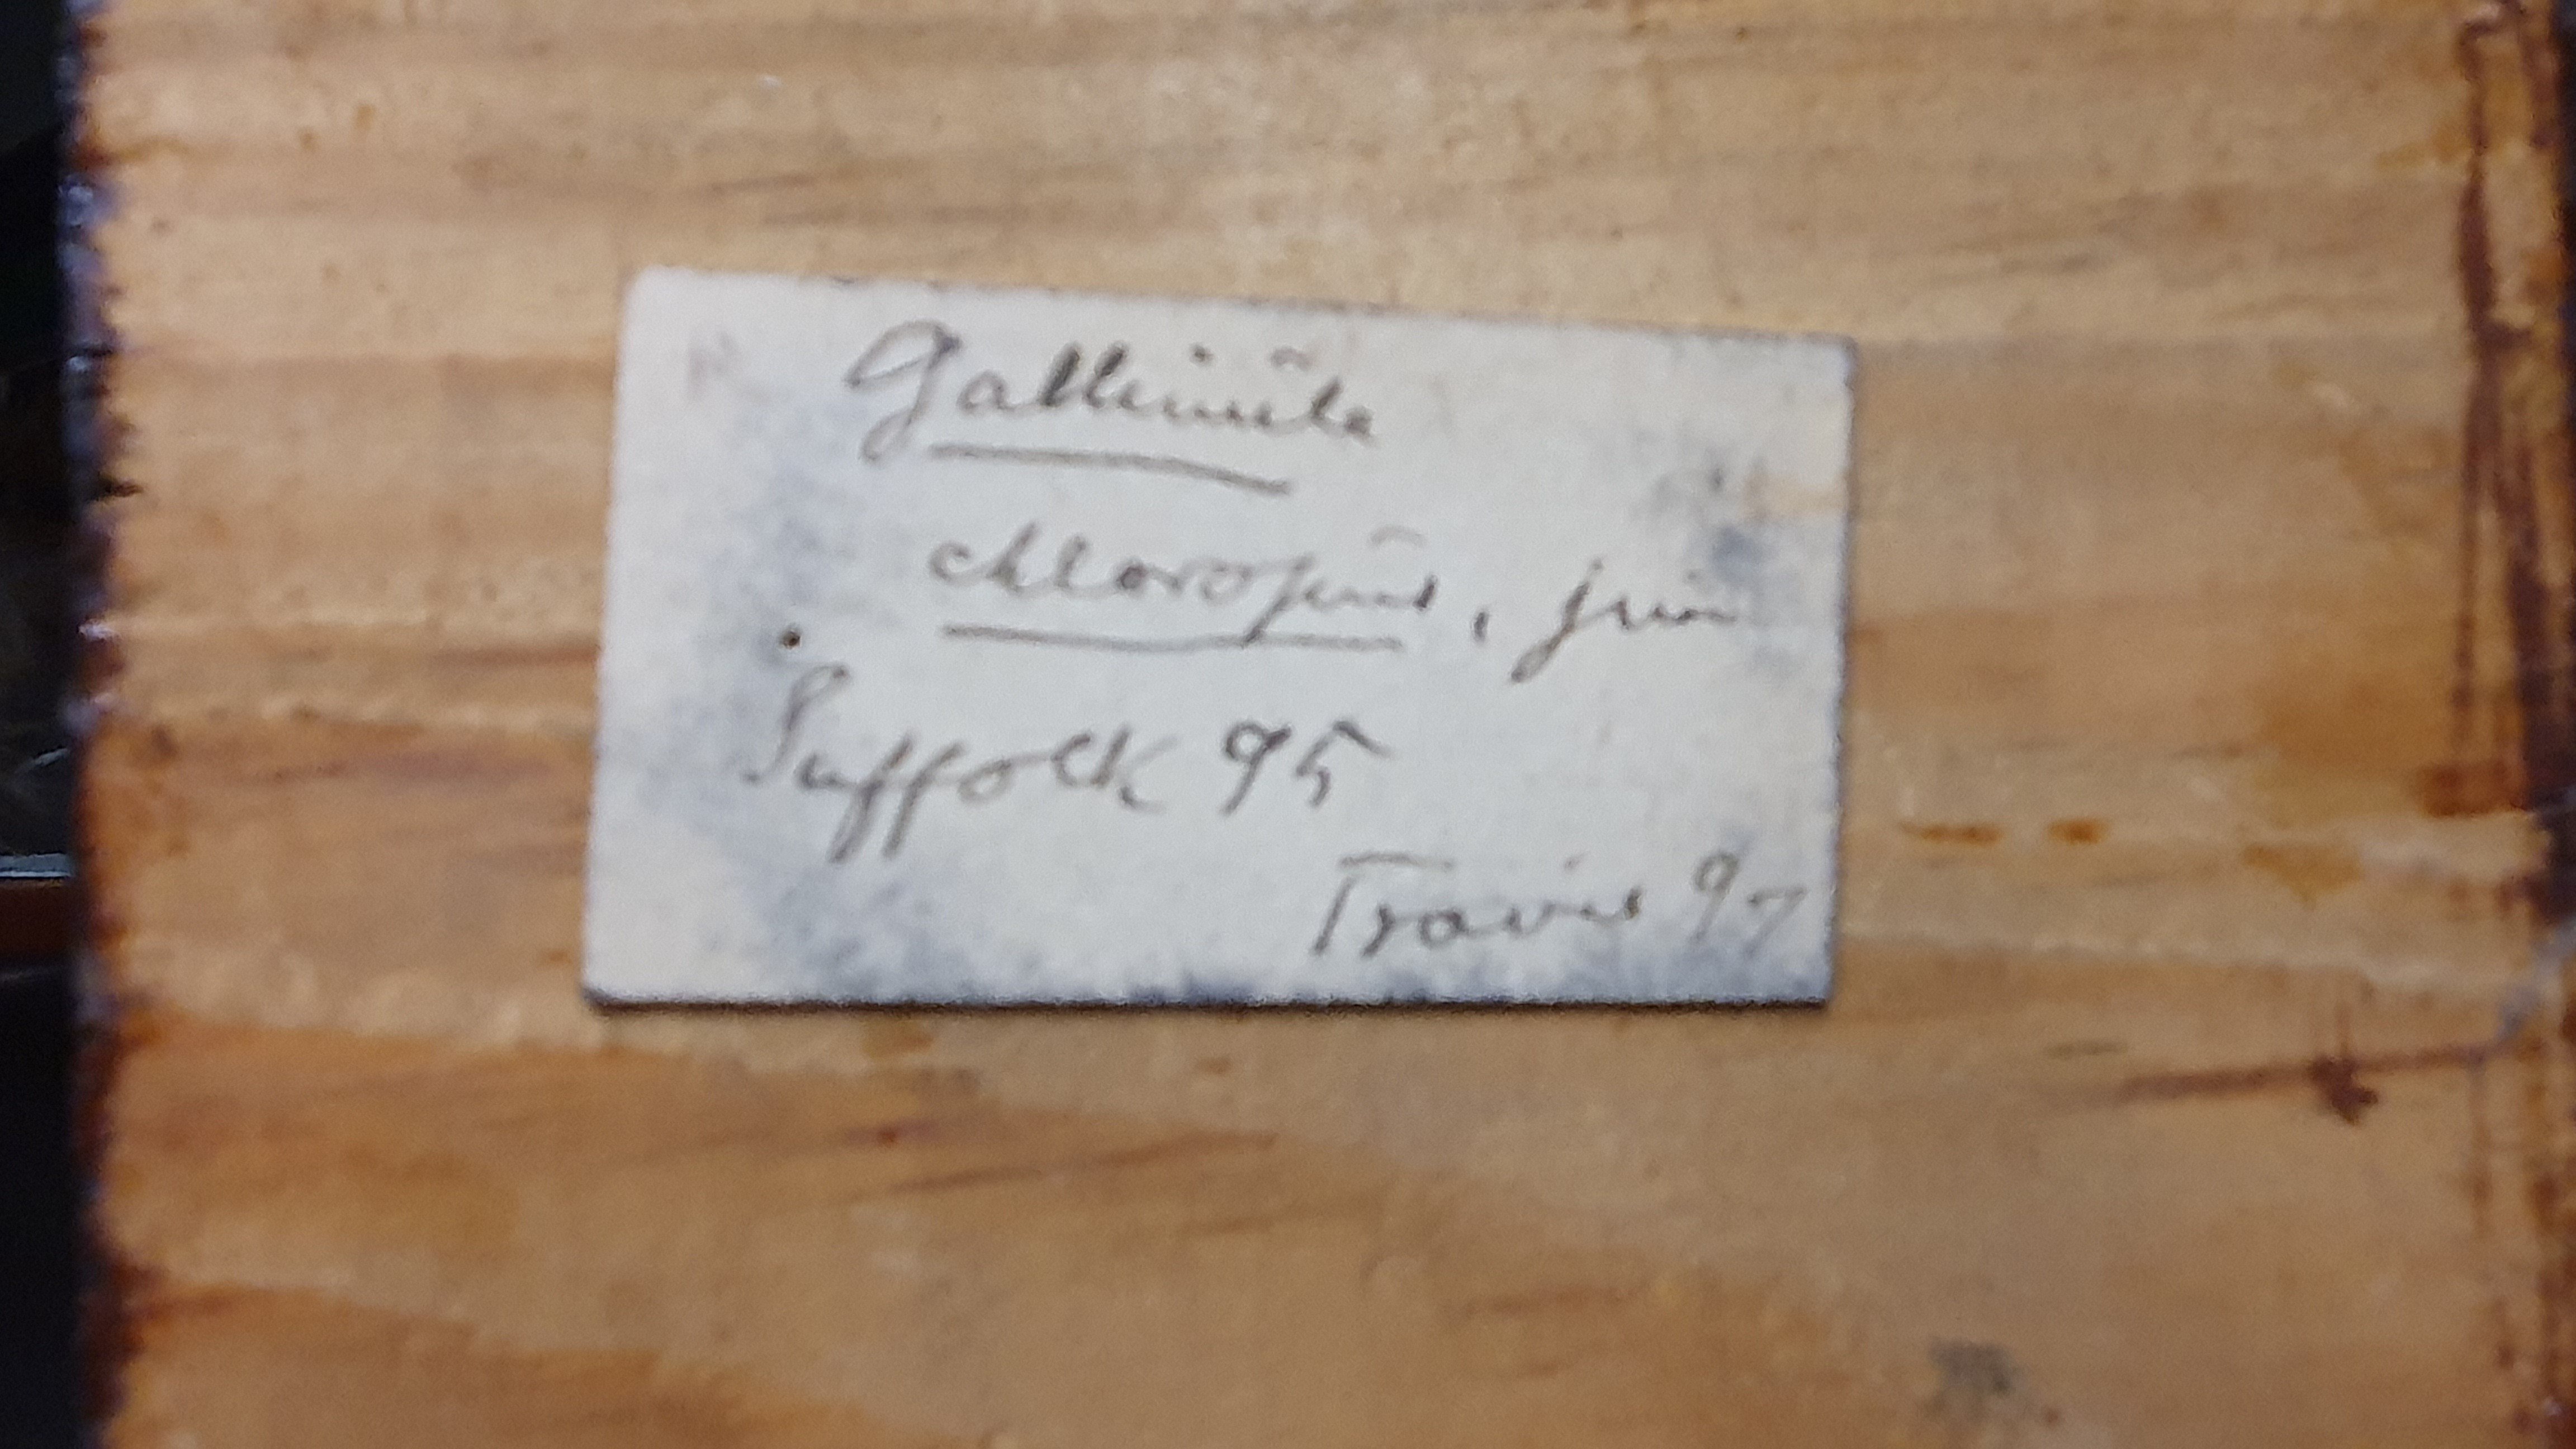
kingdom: Animalia
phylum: Chordata
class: Aves
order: Gruiformes
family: Rallidae
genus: Gallinula
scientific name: Gallinula chloropus
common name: Common moorhen
